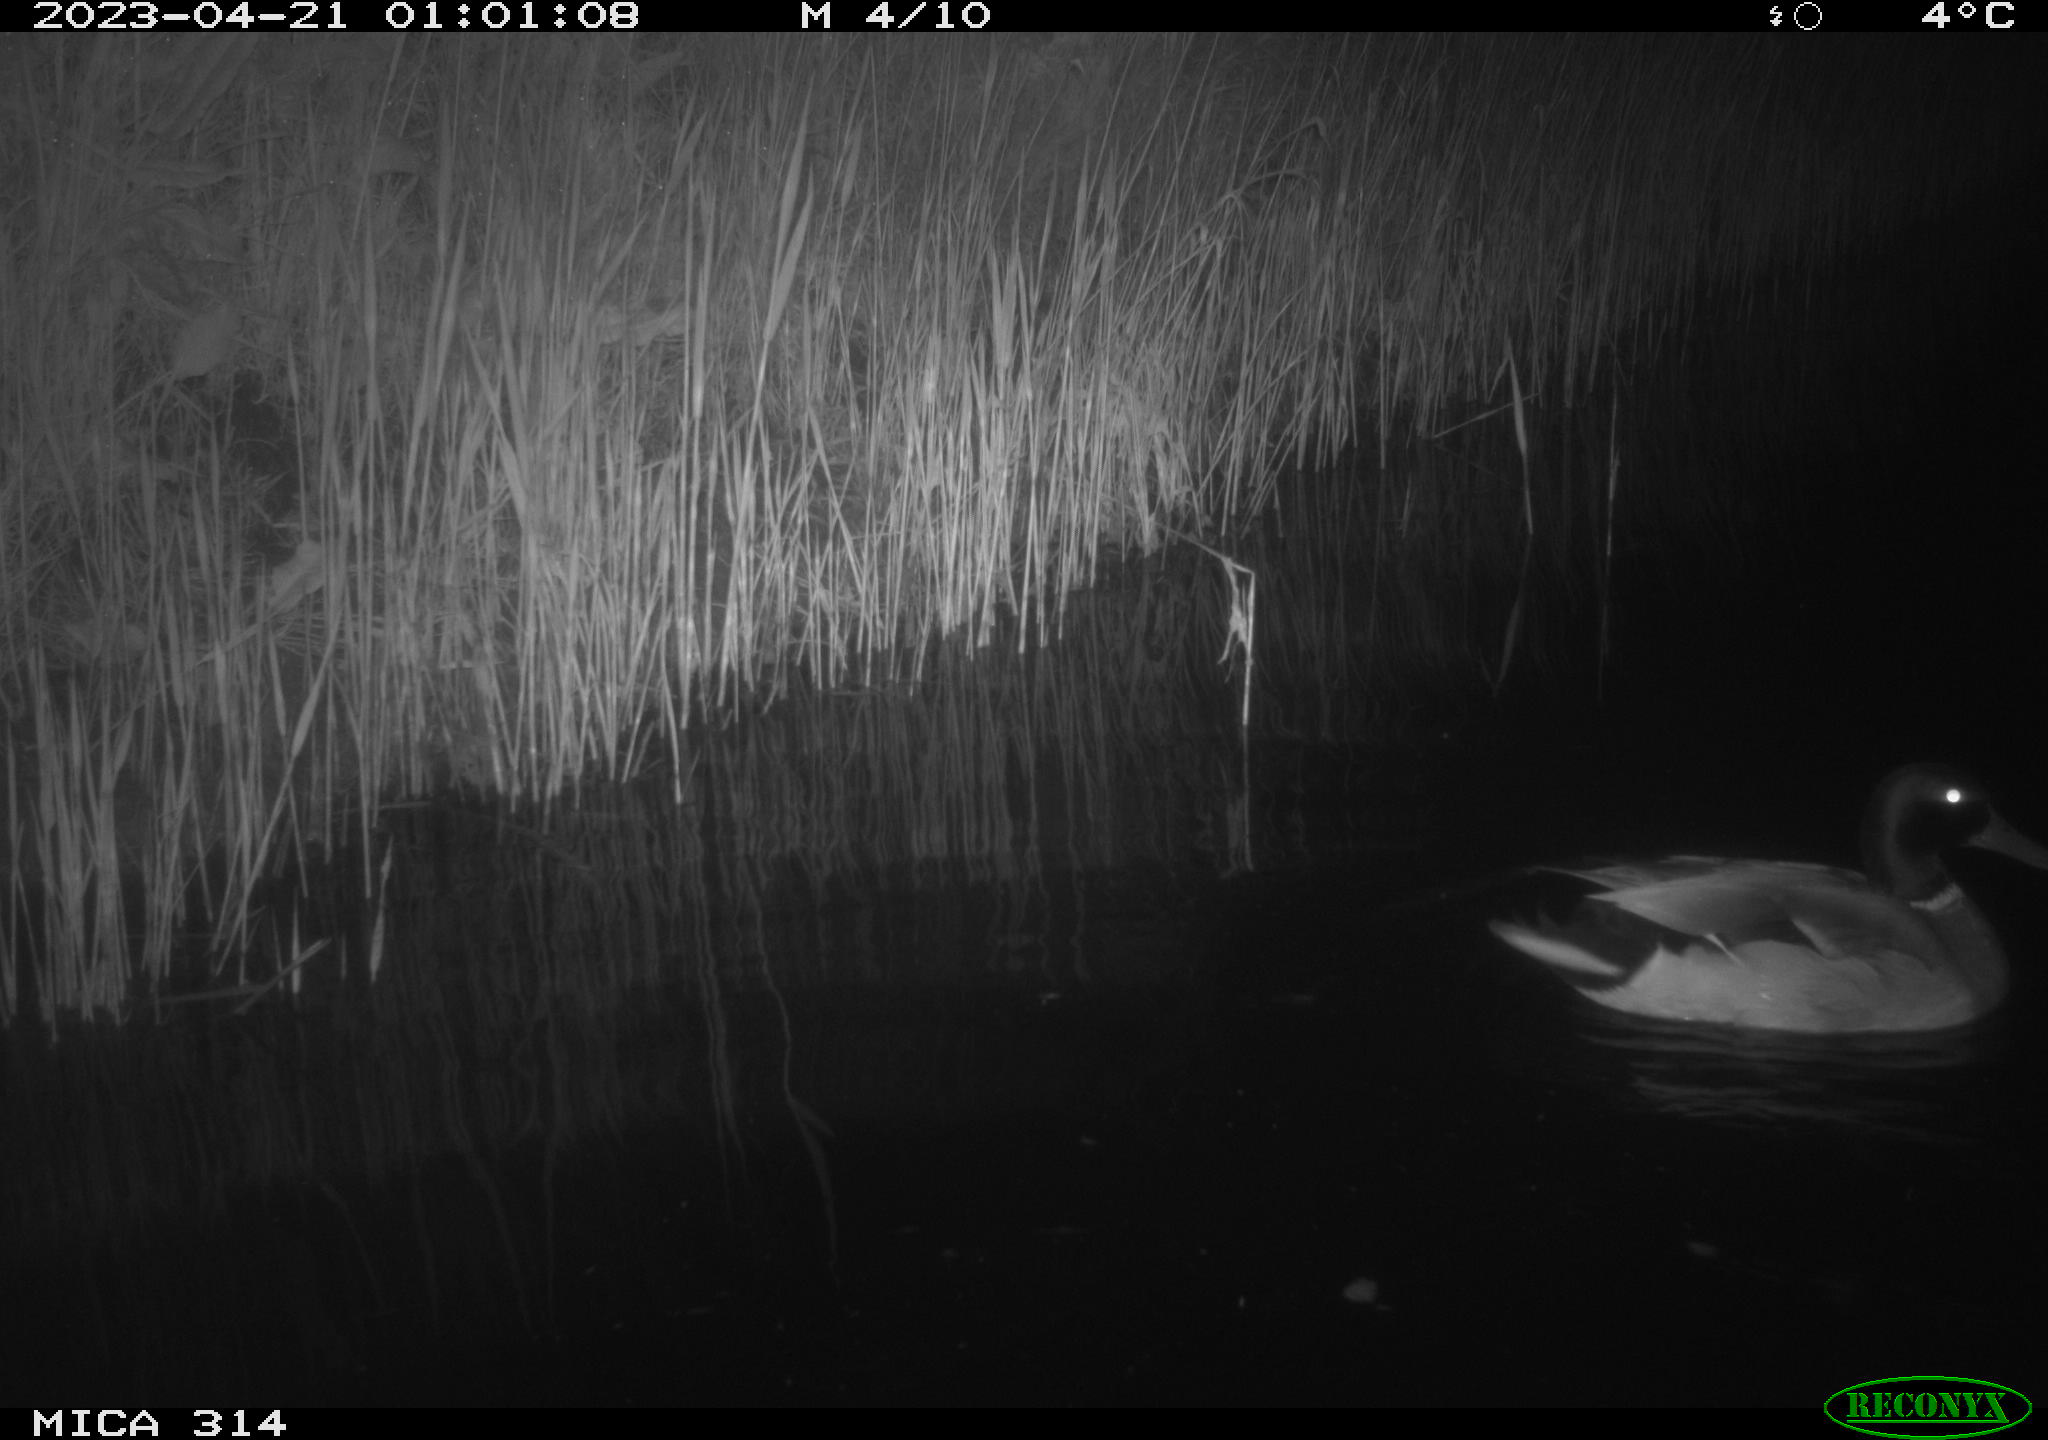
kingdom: Animalia
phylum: Chordata
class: Aves
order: Anseriformes
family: Anatidae
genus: Anas
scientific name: Anas
